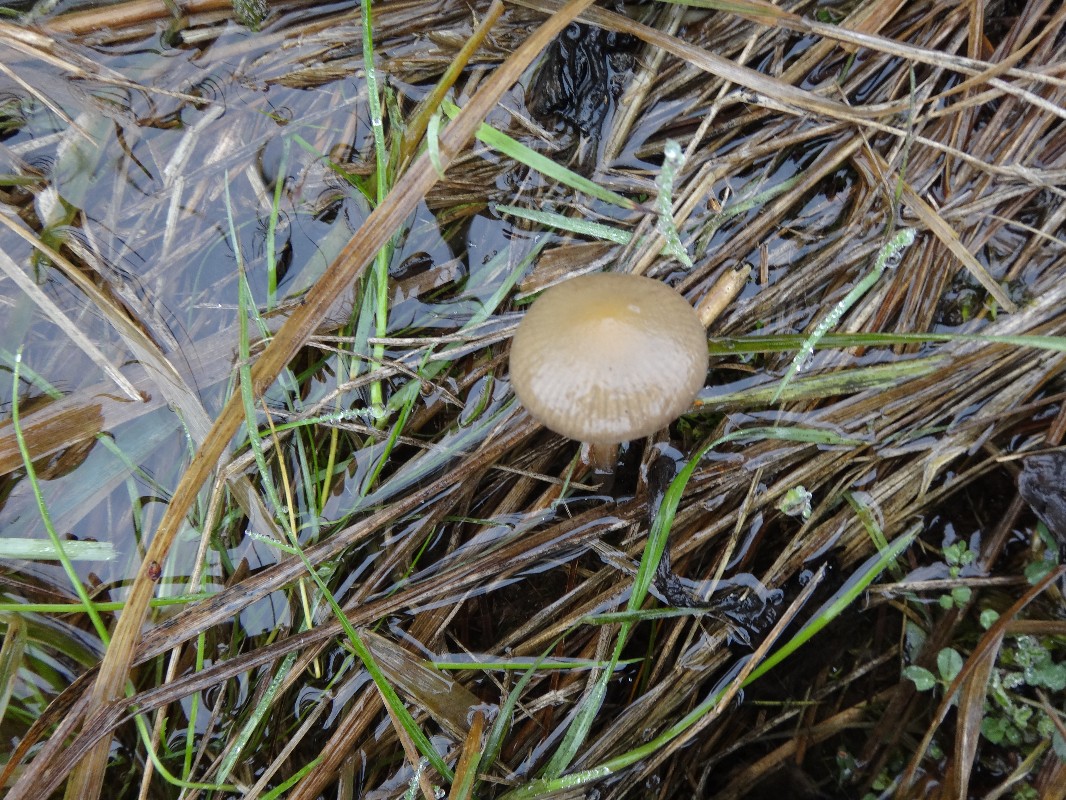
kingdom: Fungi
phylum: Basidiomycota
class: Agaricomycetes
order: Agaricales
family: Strophariaceae
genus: Protostropharia
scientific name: Protostropharia semiglobata
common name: halvkugleformet bredblad
